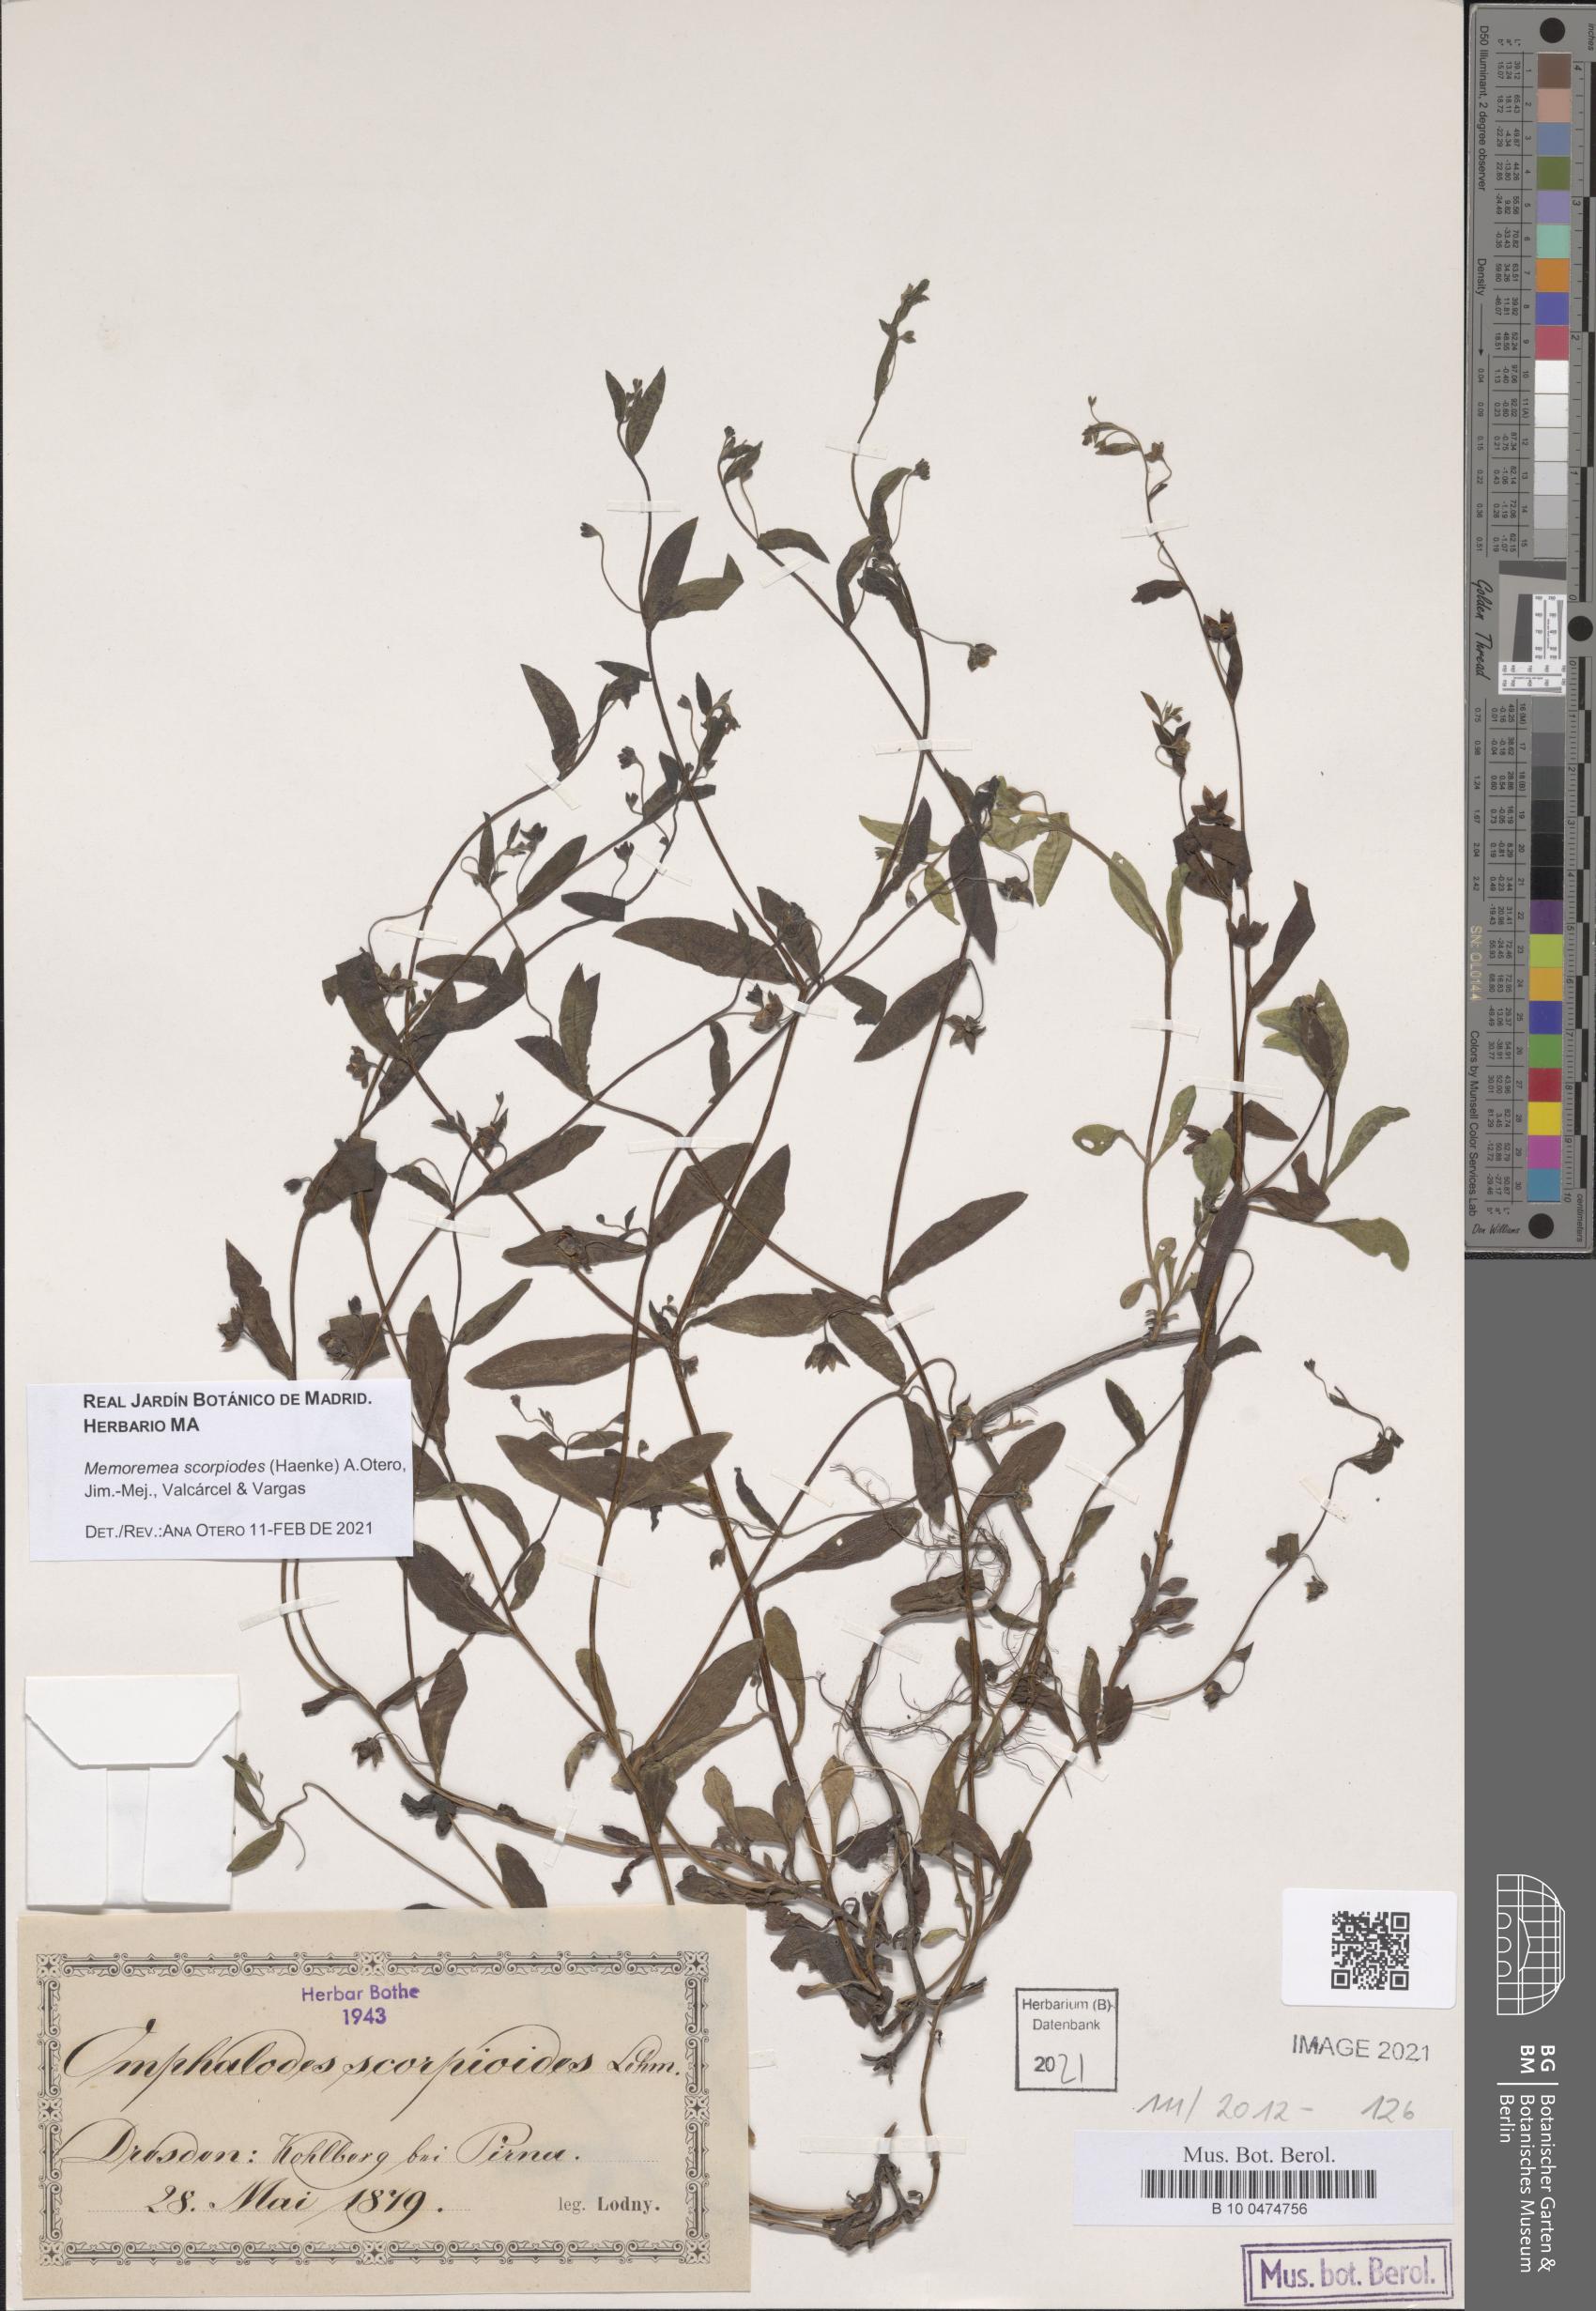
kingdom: Plantae
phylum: Tracheophyta
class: Magnoliopsida
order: Boraginales
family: Boraginaceae
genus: Memoremea
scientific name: Memoremea scorpioides
